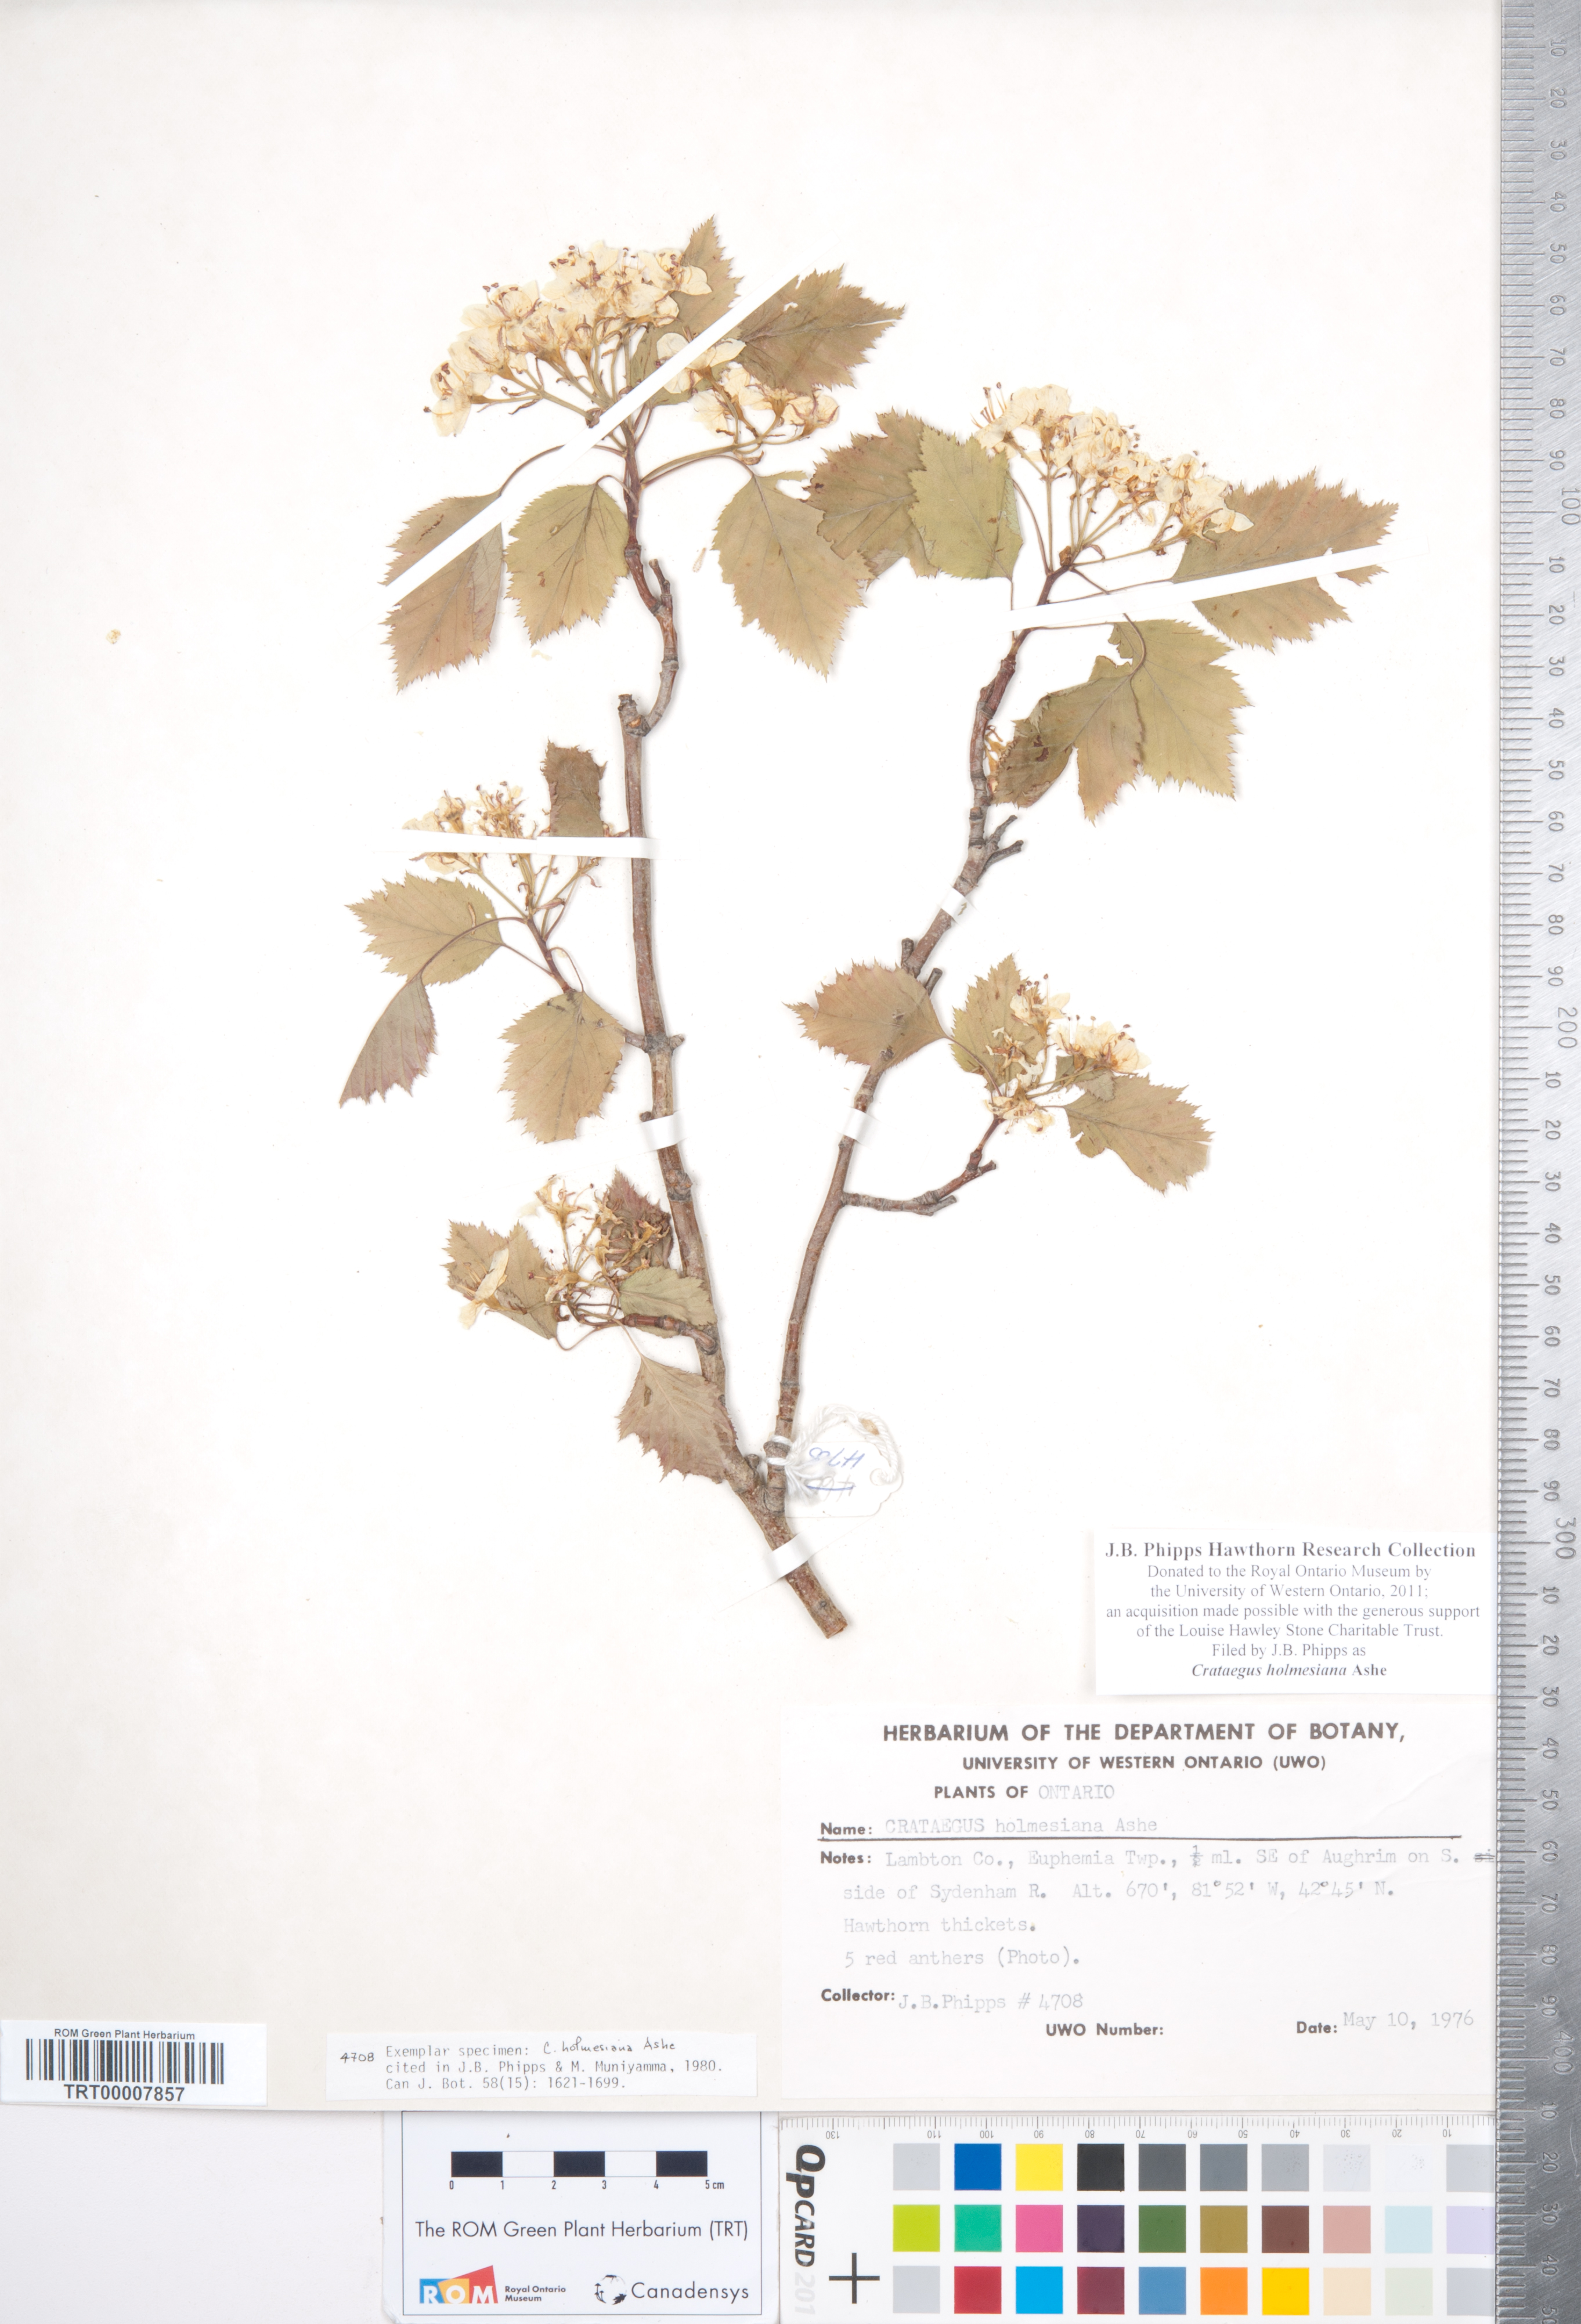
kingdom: Plantae
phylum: Tracheophyta
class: Magnoliopsida
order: Rosales
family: Rosaceae
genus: Crataegus
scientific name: Crataegus holmesiana
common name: Holmes' hawthorn
